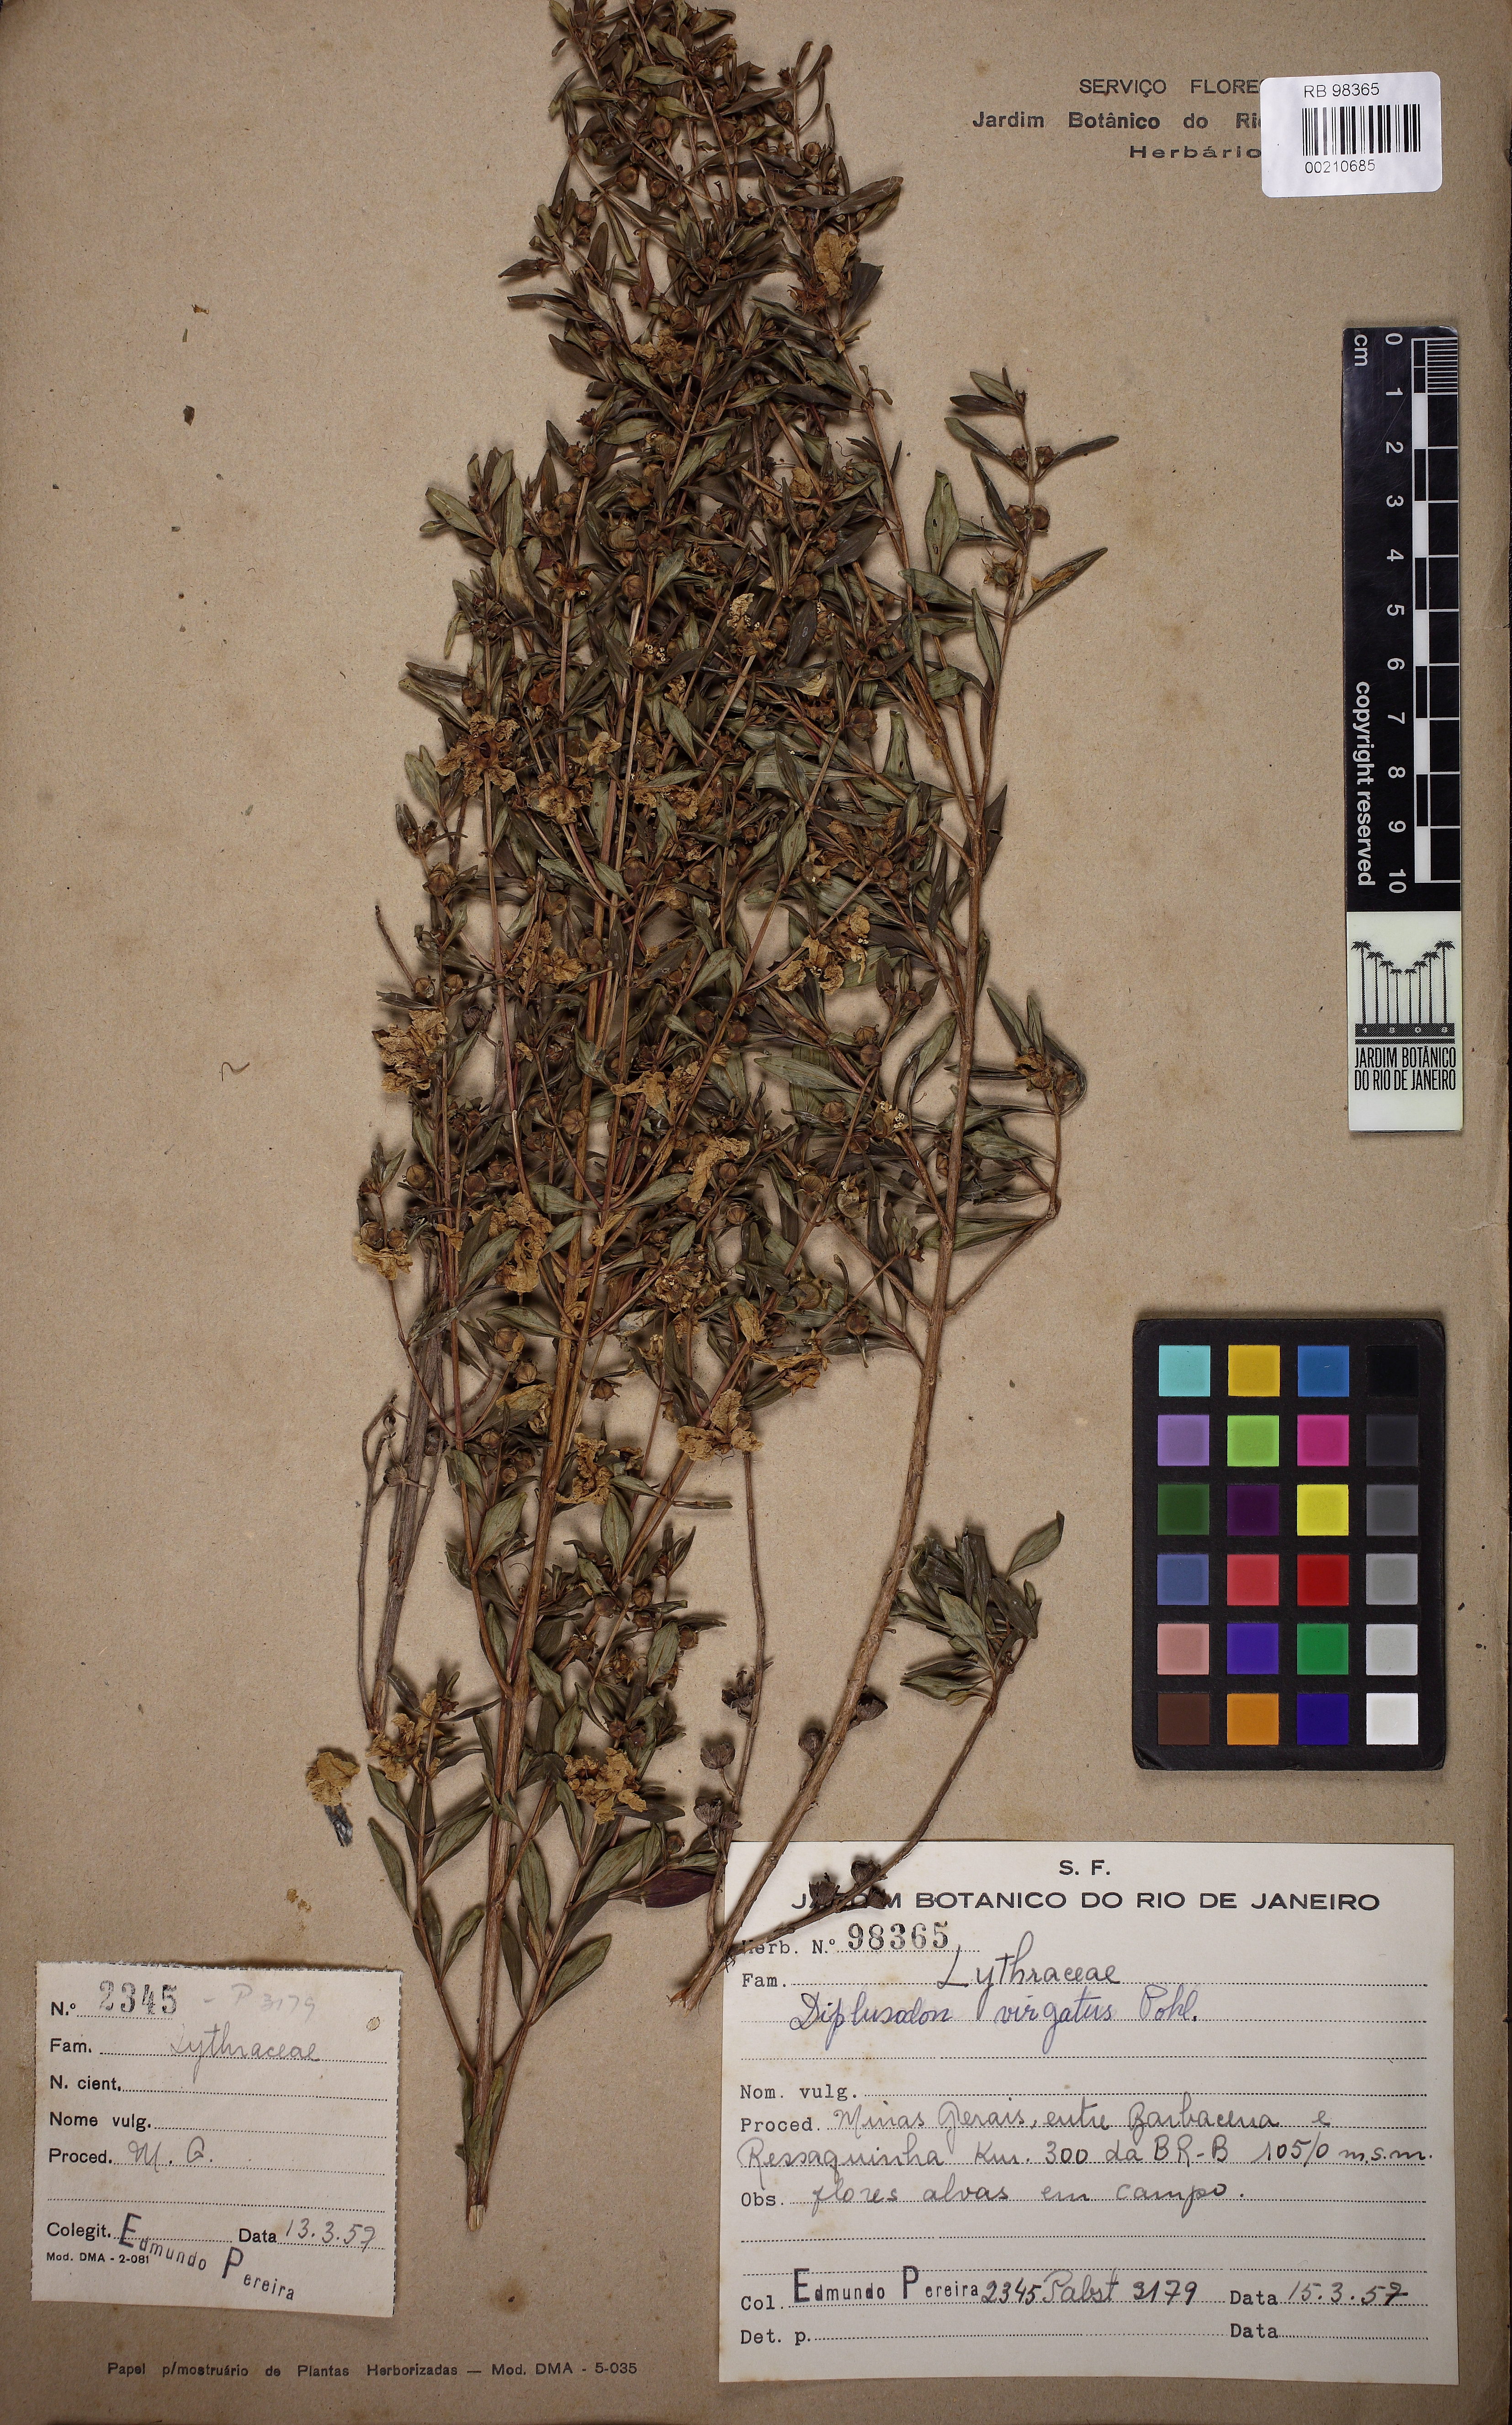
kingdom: Plantae
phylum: Tracheophyta
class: Magnoliopsida
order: Myrtales
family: Lythraceae
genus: Diplusodon
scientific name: Diplusodon virgatus
